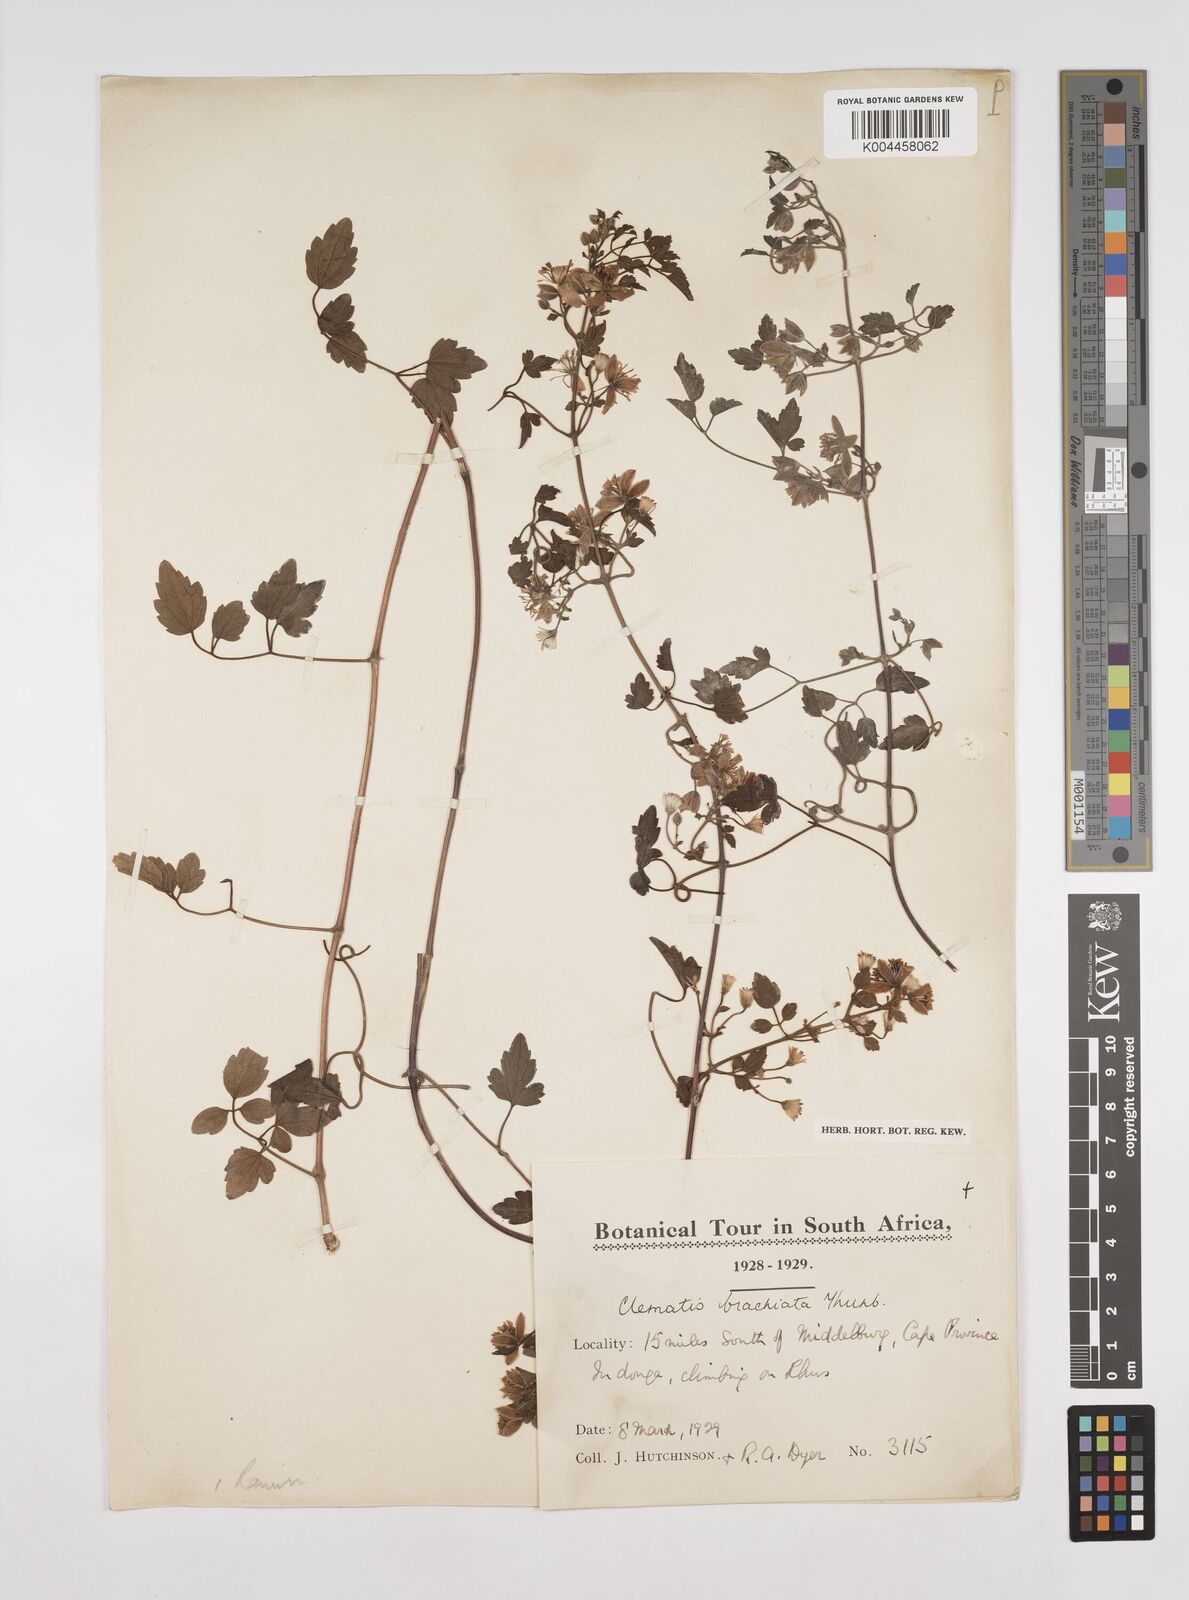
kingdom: Plantae
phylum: Tracheophyta
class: Magnoliopsida
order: Ranunculales
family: Ranunculaceae
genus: Clematis
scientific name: Clematis brachiata
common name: Traveler's-joy
